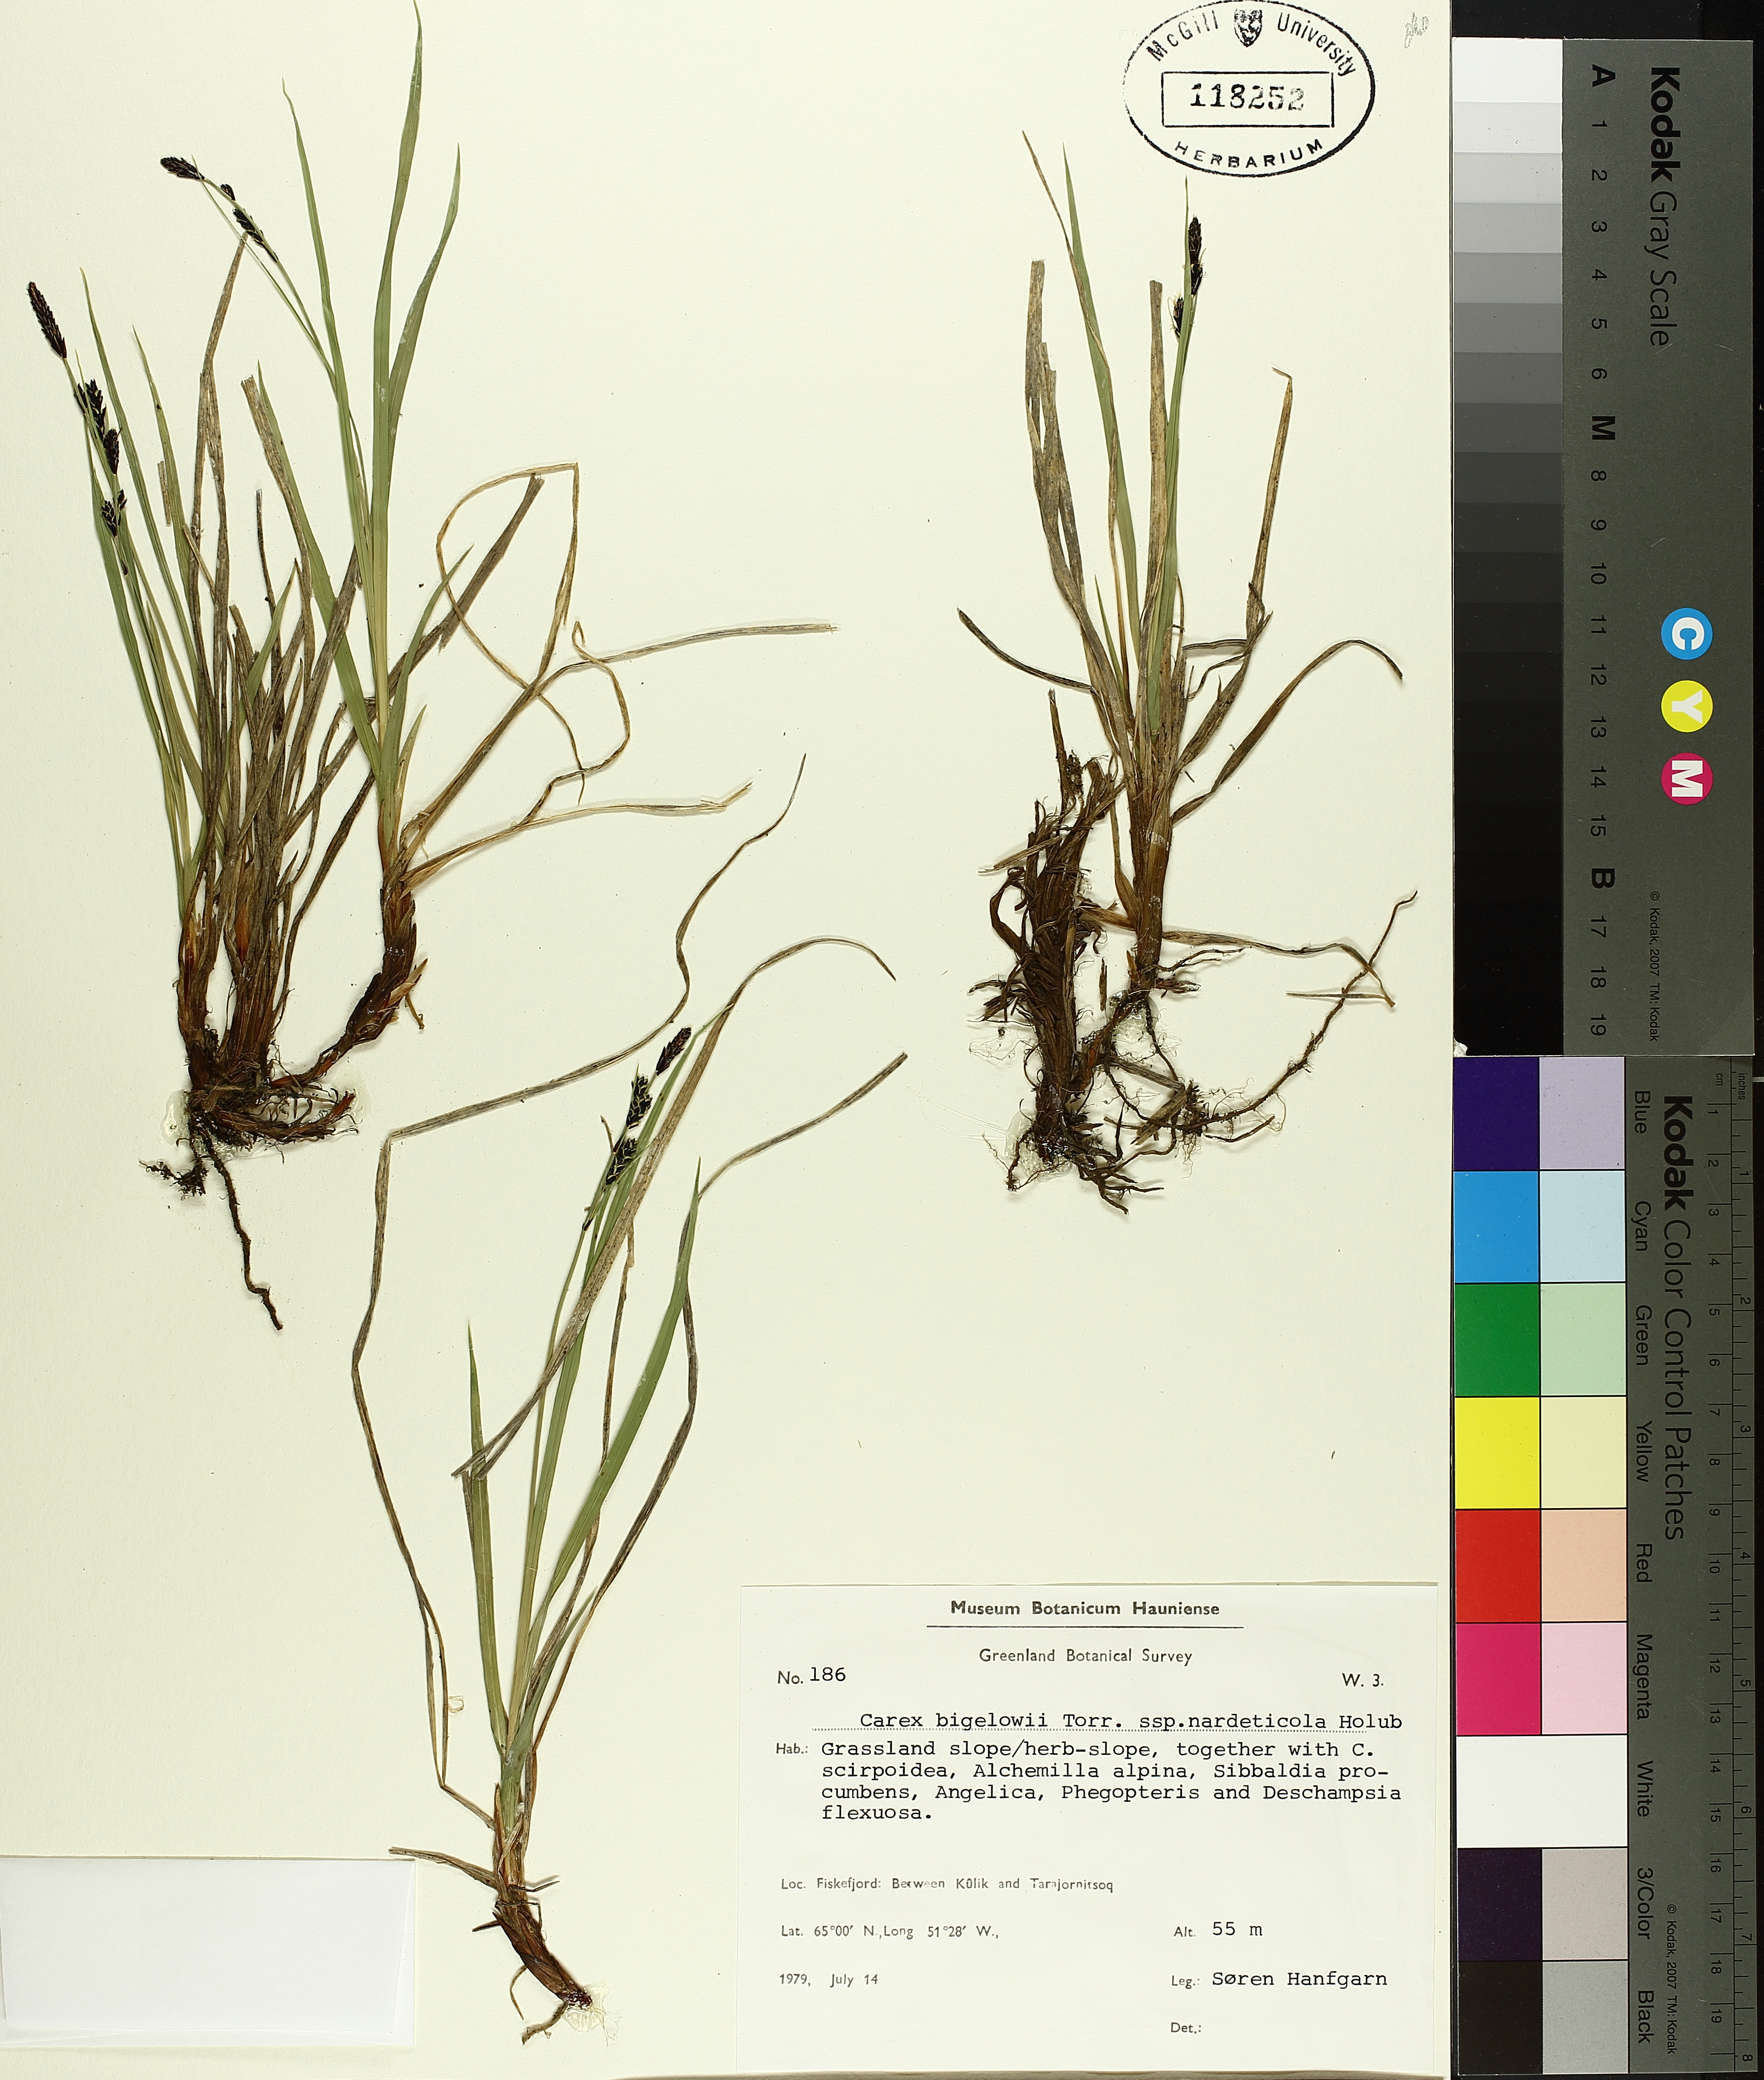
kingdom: Plantae
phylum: Tracheophyta
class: Liliopsida
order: Poales
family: Cyperaceae
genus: Carex
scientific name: Carex bigelowii
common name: Stiff sedge
